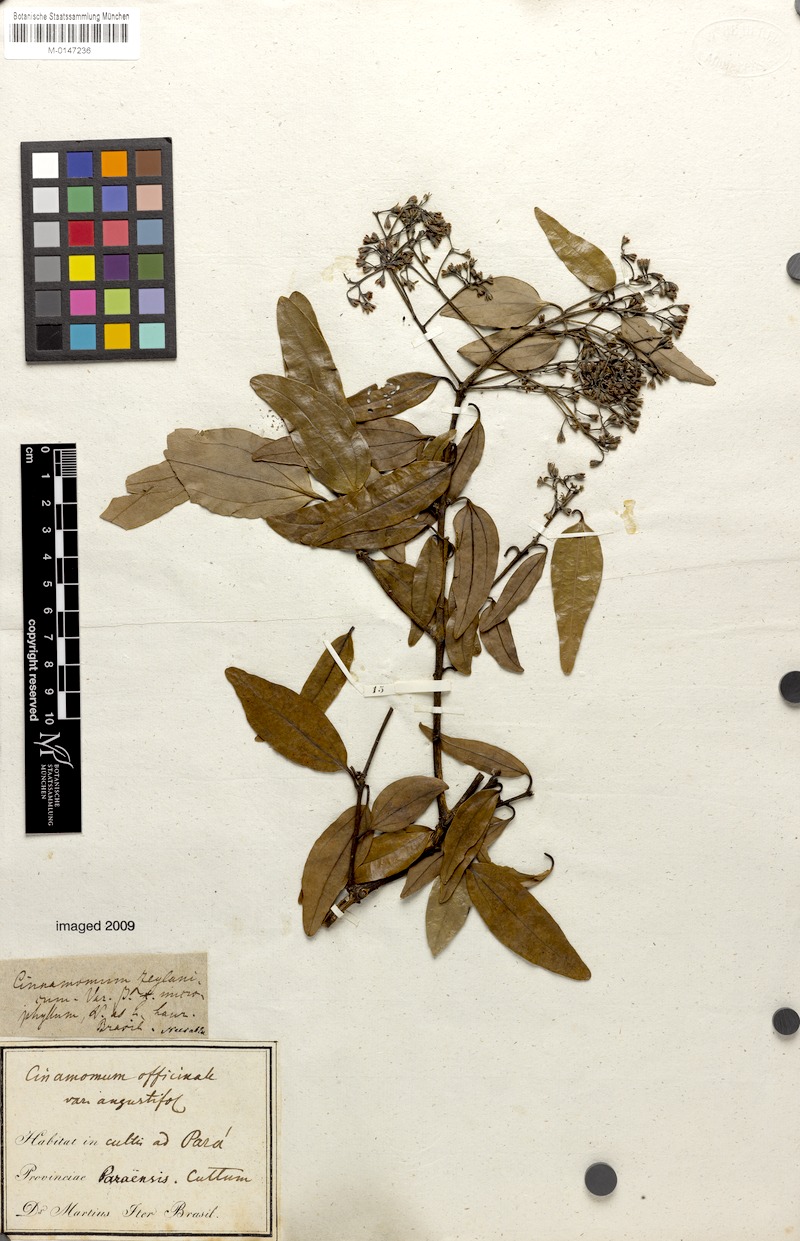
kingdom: Plantae
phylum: Tracheophyta
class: Magnoliopsida
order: Laurales
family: Lauraceae
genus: Cinnamomum
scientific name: Cinnamomum verum
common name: Cinnamon
